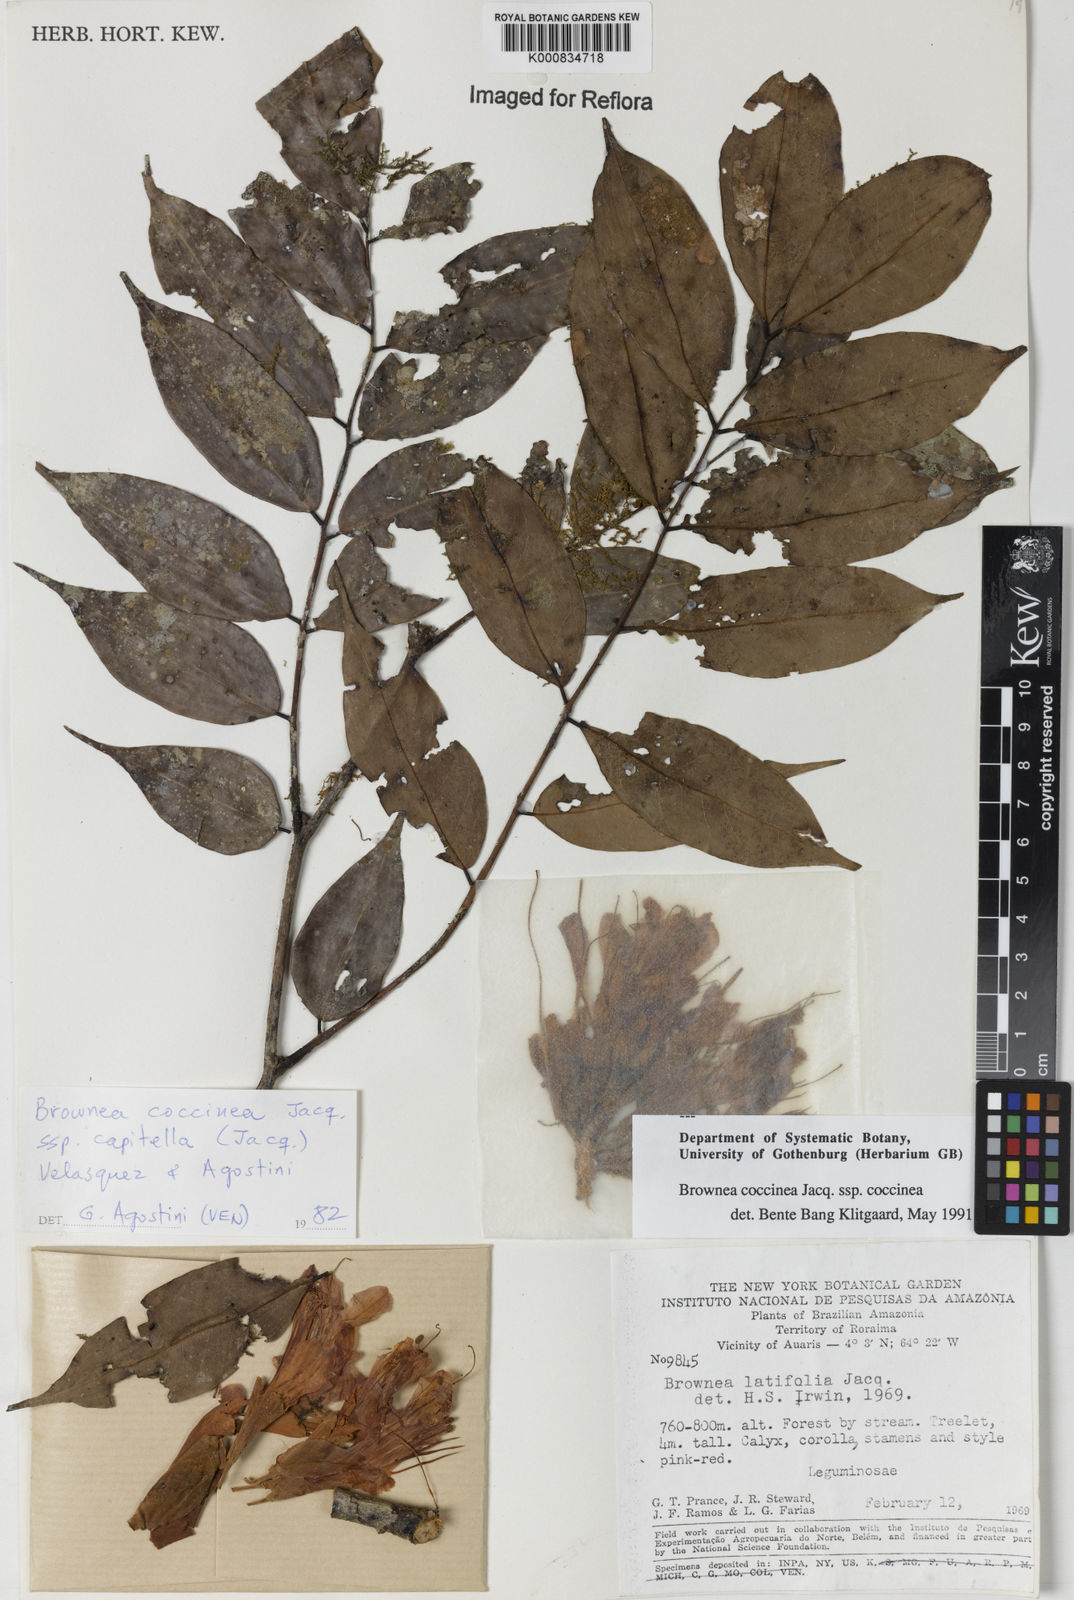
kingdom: Plantae
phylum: Tracheophyta
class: Magnoliopsida
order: Fabales
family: Fabaceae
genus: Brownea
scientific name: Brownea coccinea
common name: Scarlet flame-bean
